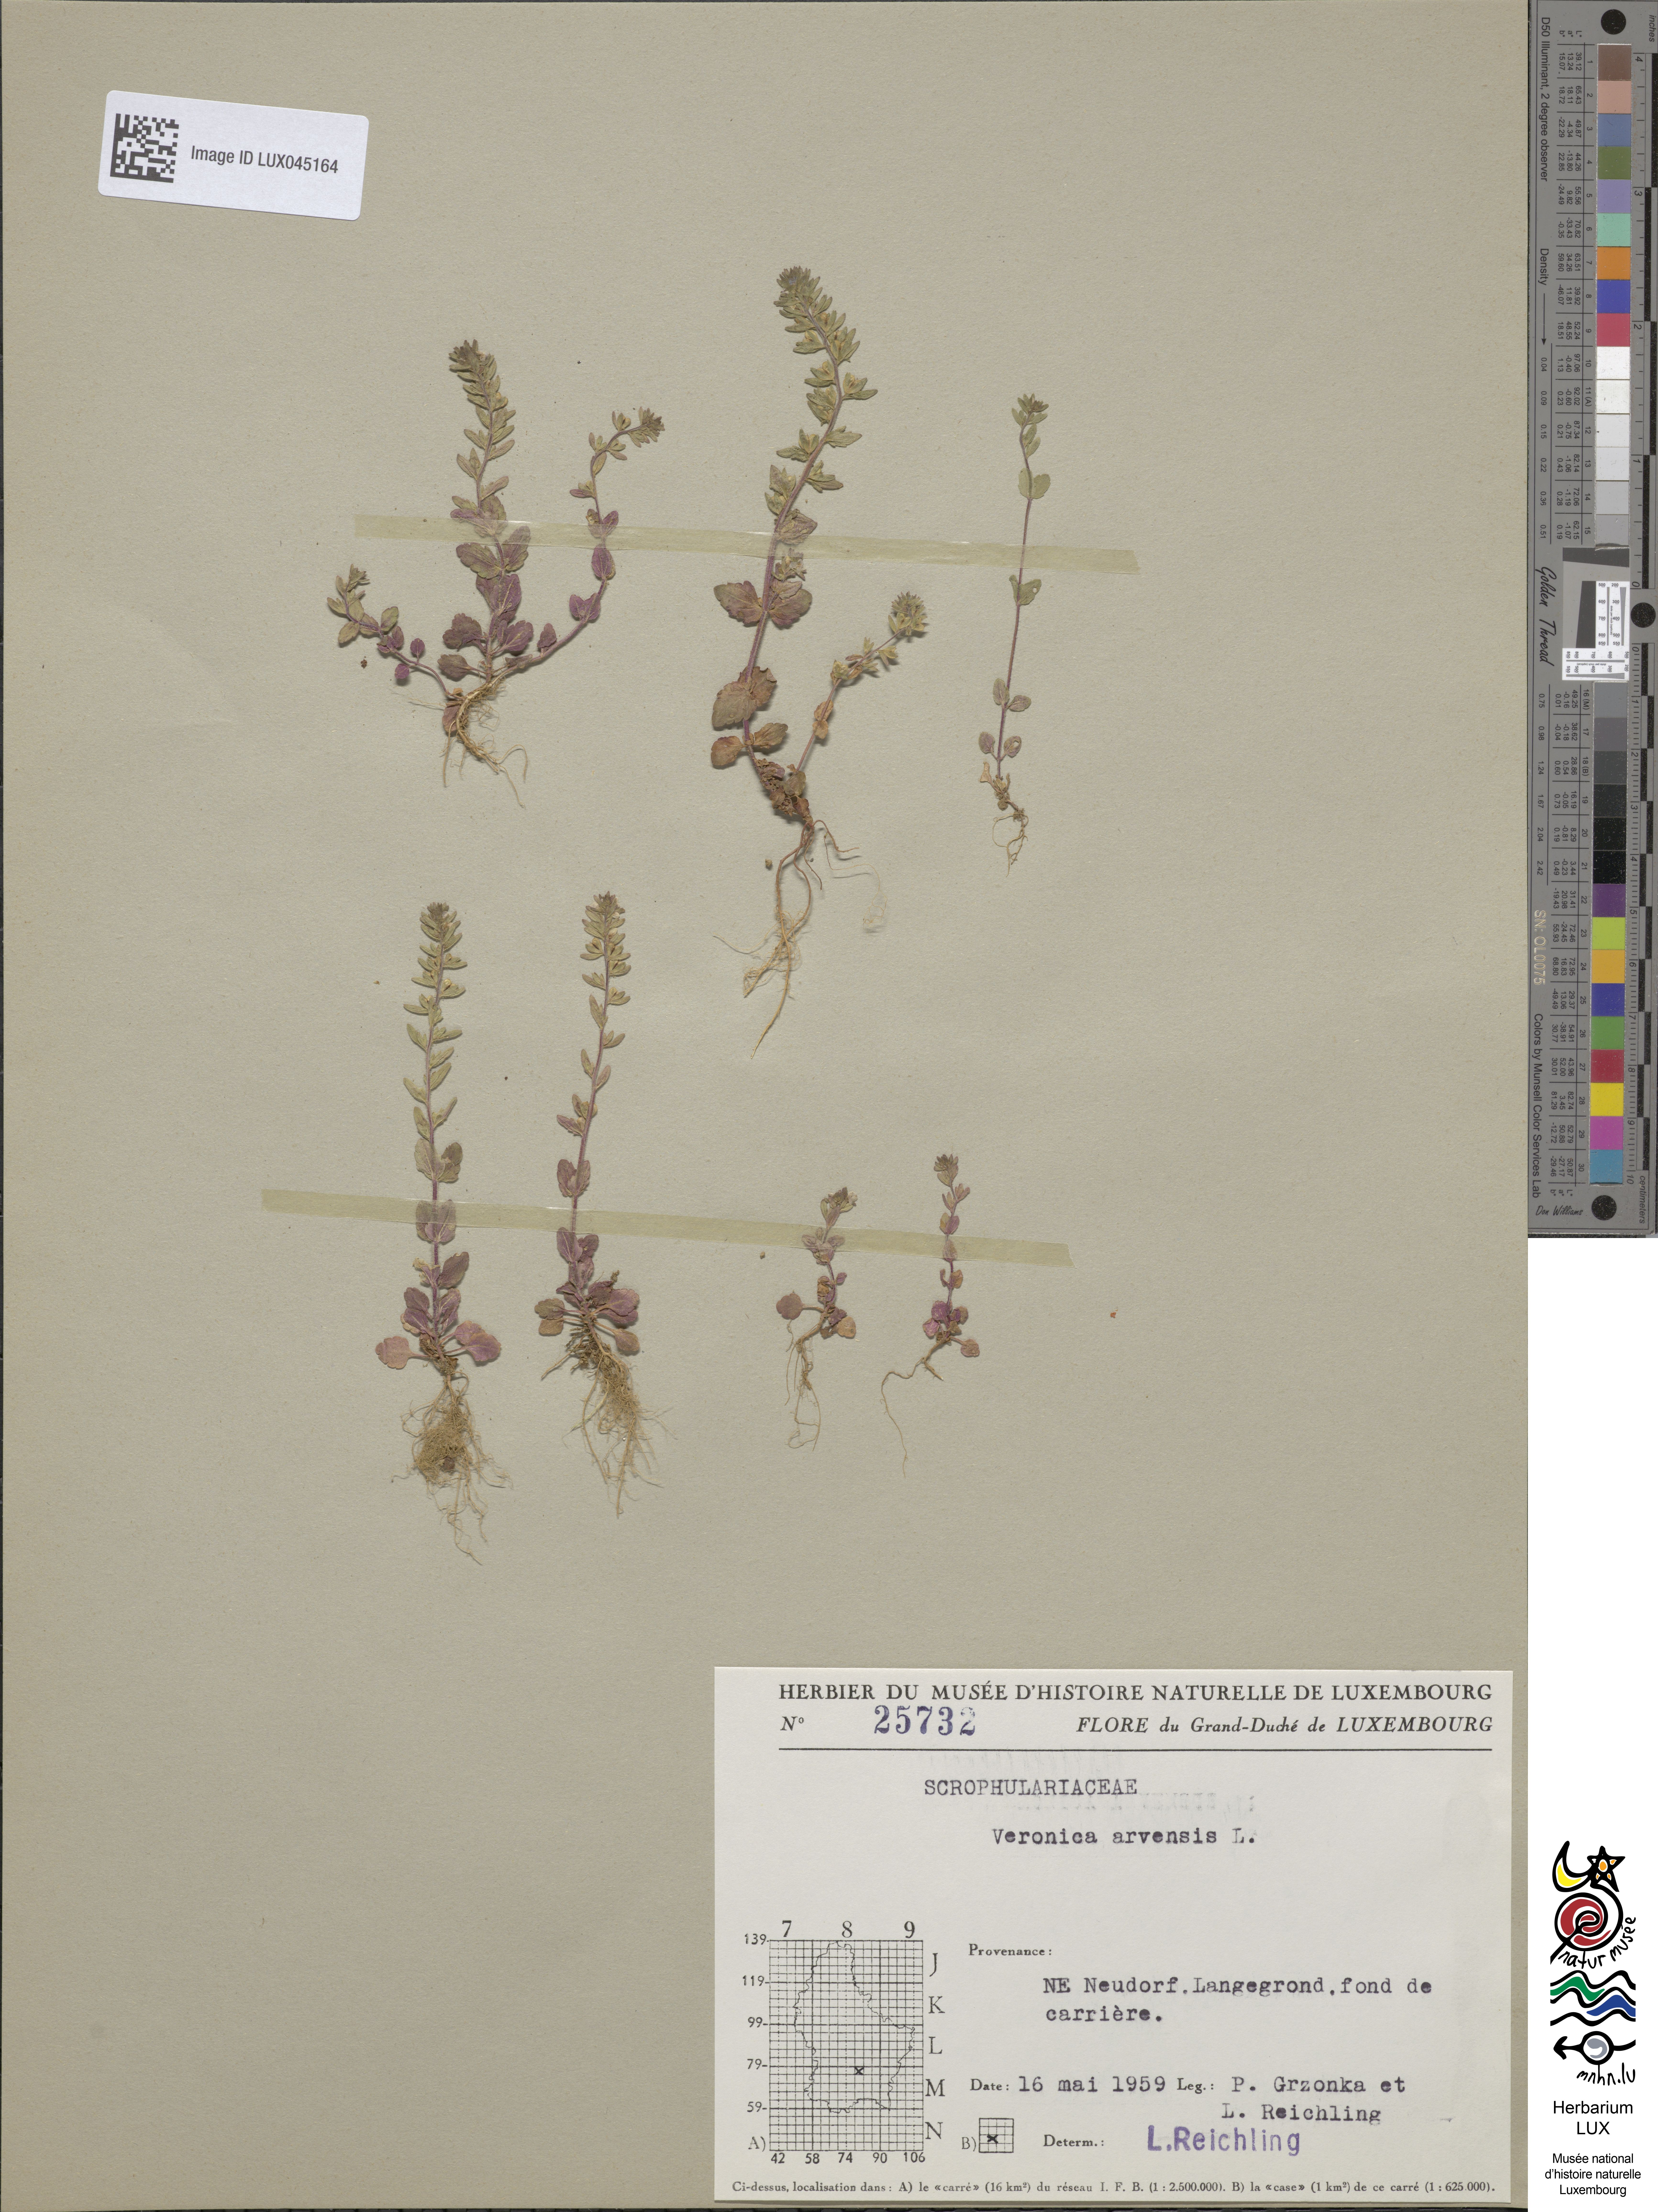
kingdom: Plantae
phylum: Tracheophyta
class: Magnoliopsida
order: Lamiales
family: Plantaginaceae
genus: Veronica
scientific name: Veronica arvensis
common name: Corn speedwell
